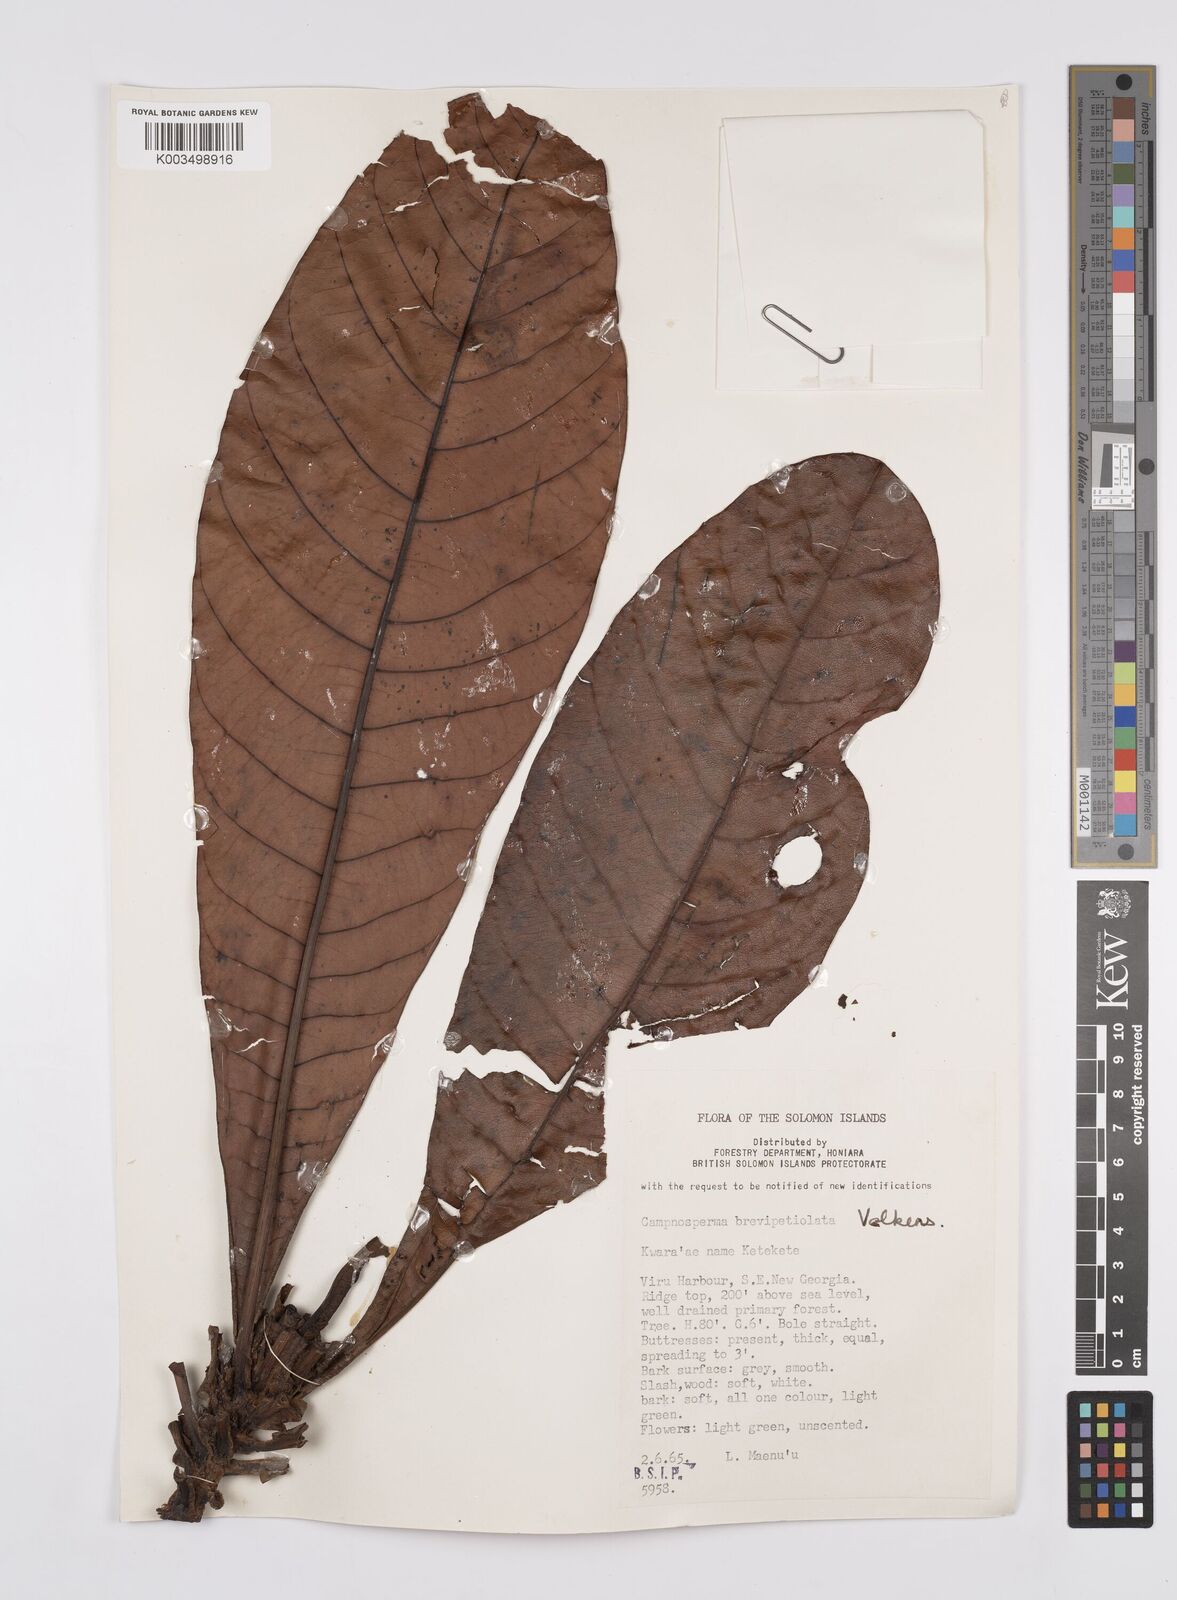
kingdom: Plantae
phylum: Tracheophyta
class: Magnoliopsida
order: Sapindales
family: Anacardiaceae
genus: Campnosperma
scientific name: Campnosperma brevipetiolatum
